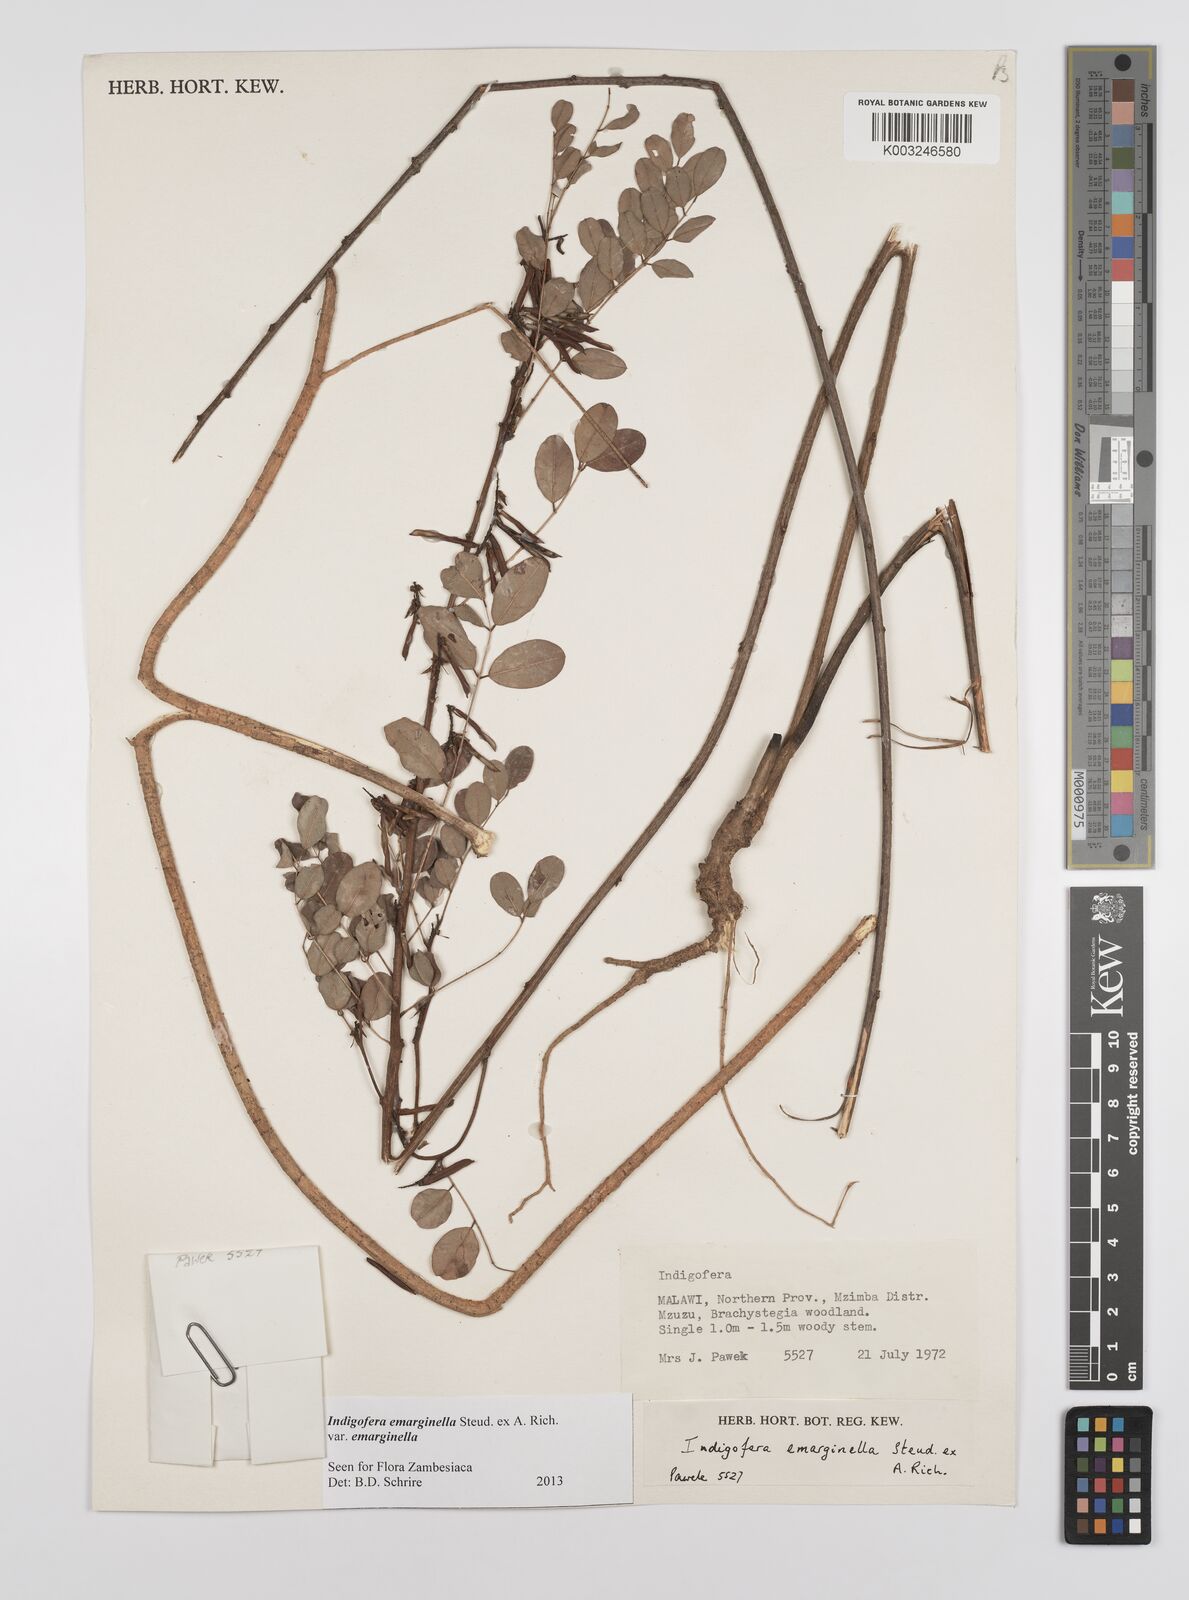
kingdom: Plantae
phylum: Tracheophyta
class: Magnoliopsida
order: Fabales
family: Fabaceae
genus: Indigofera
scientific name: Indigofera emarginella
